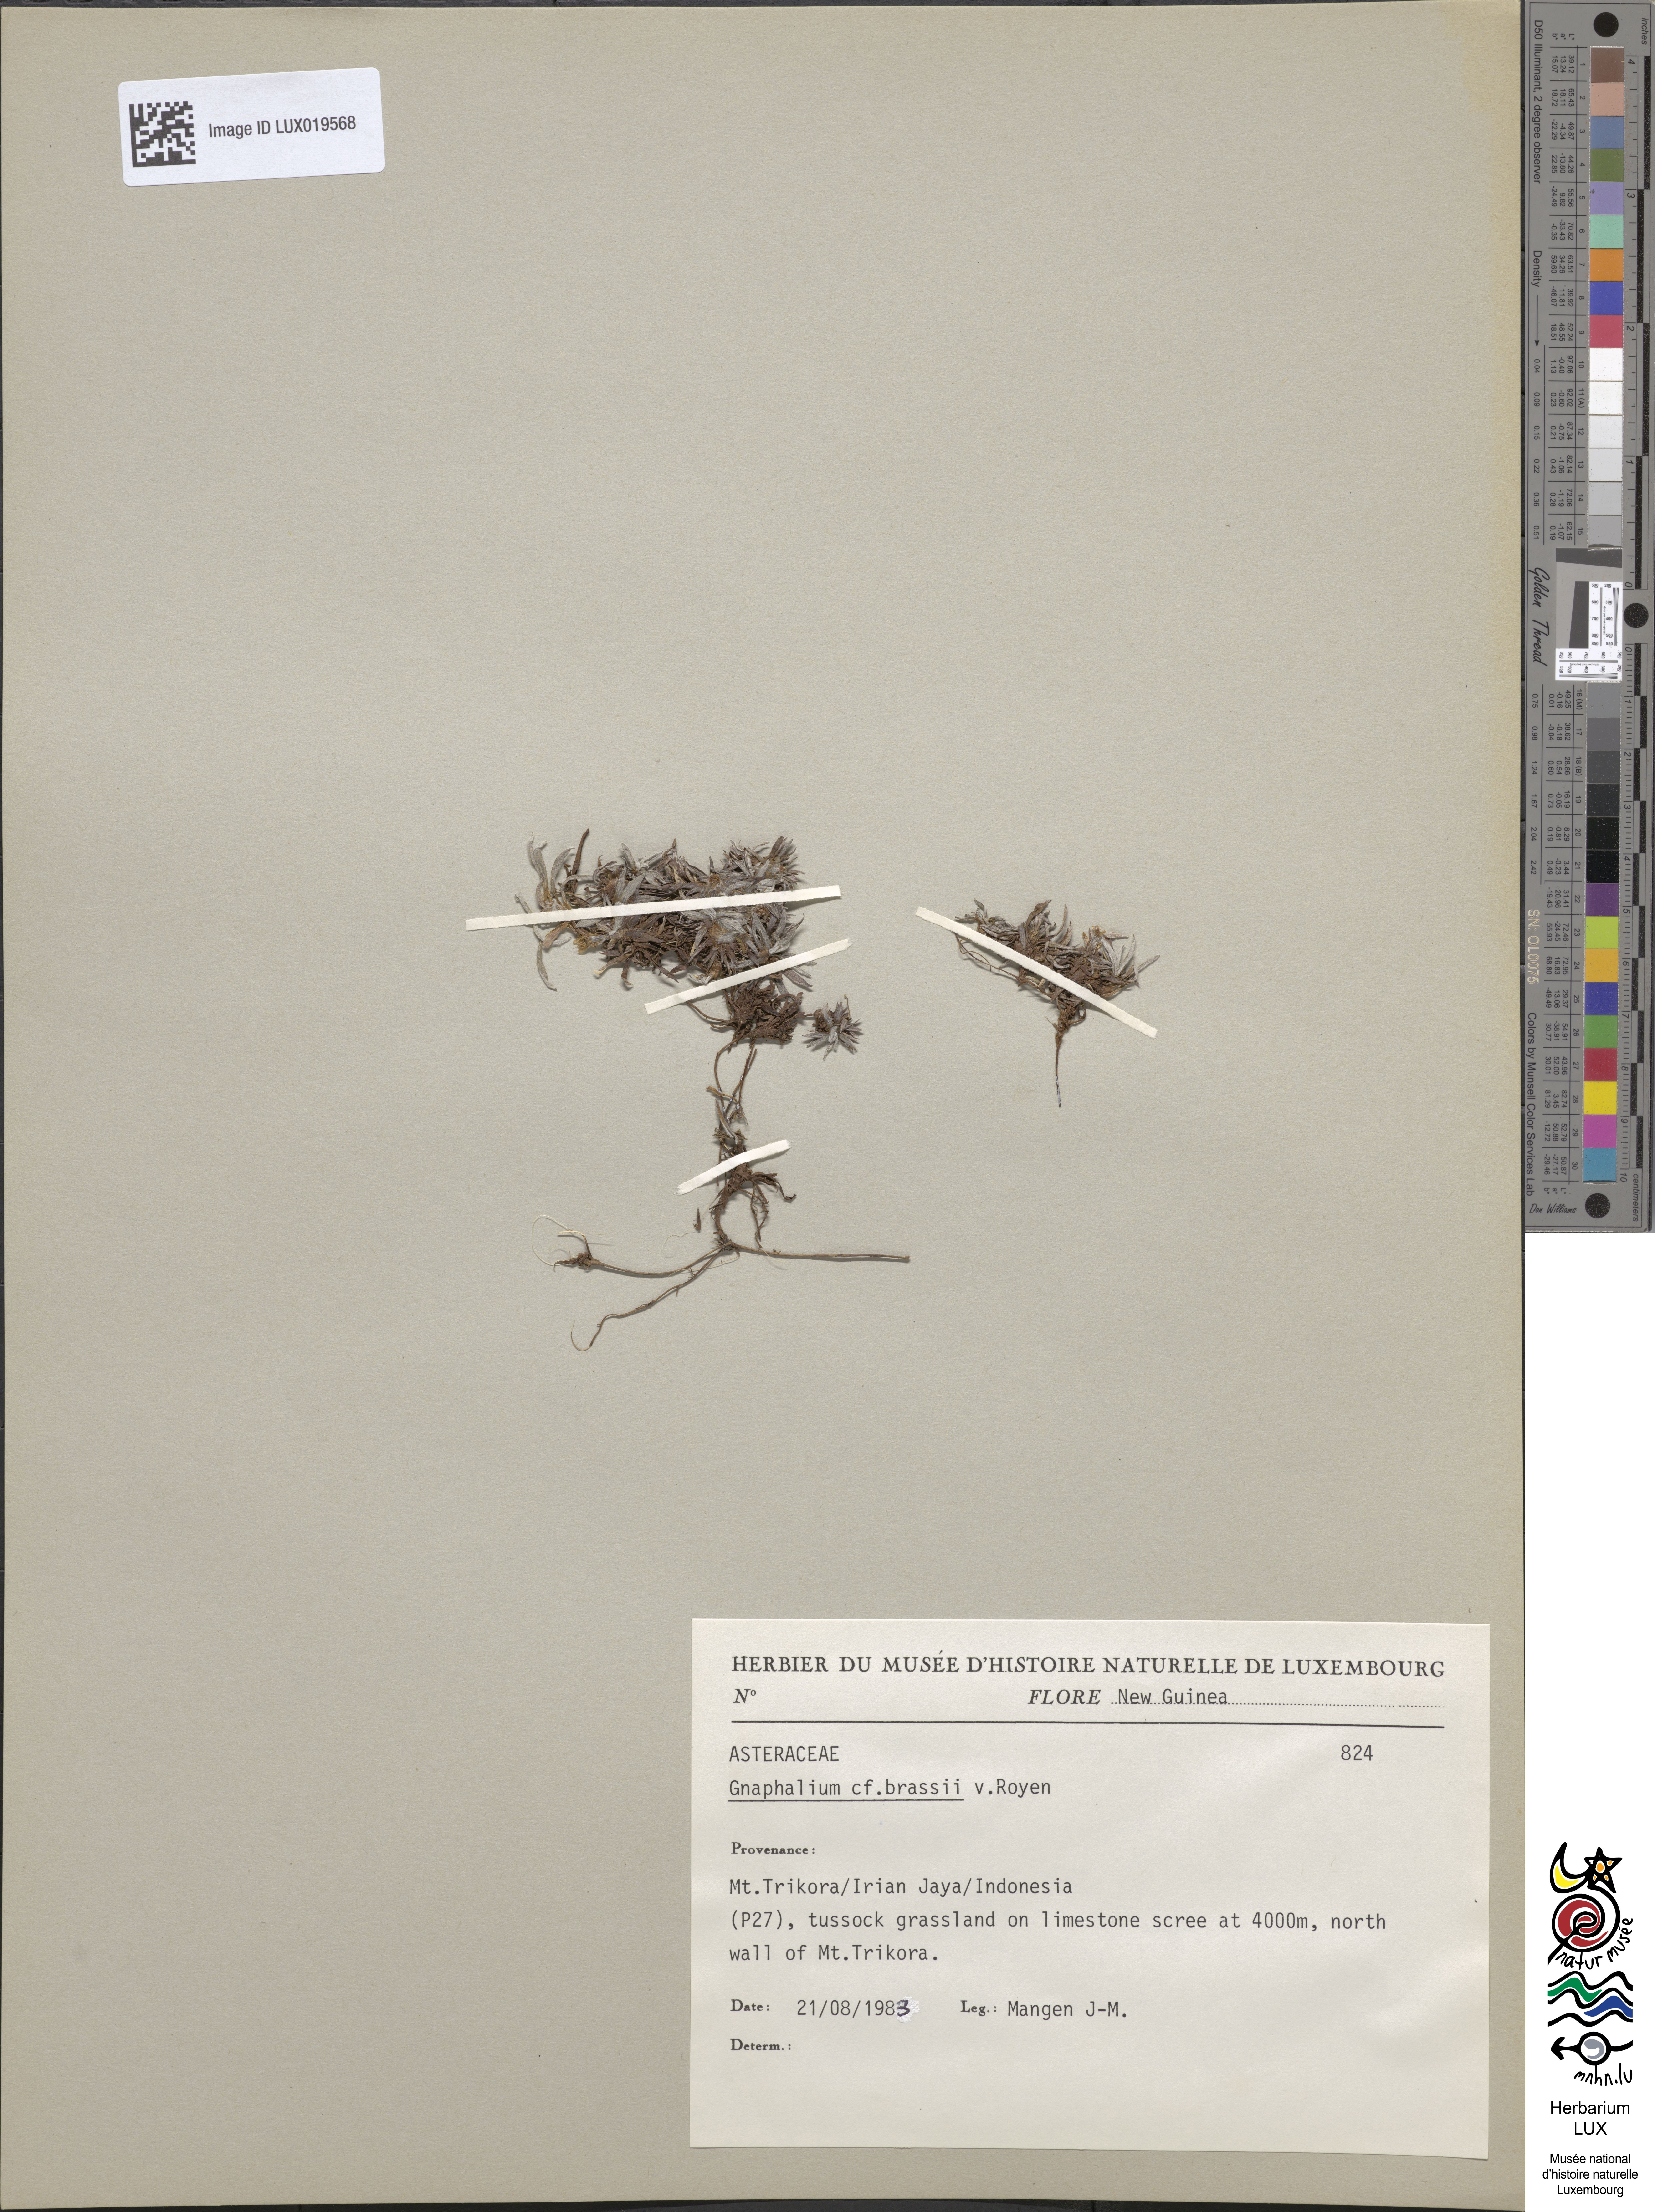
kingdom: Plantae
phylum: Tracheophyta
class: Magnoliopsida
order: Asterales
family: Asteraceae
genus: Euchiton
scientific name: Euchiton brassii
